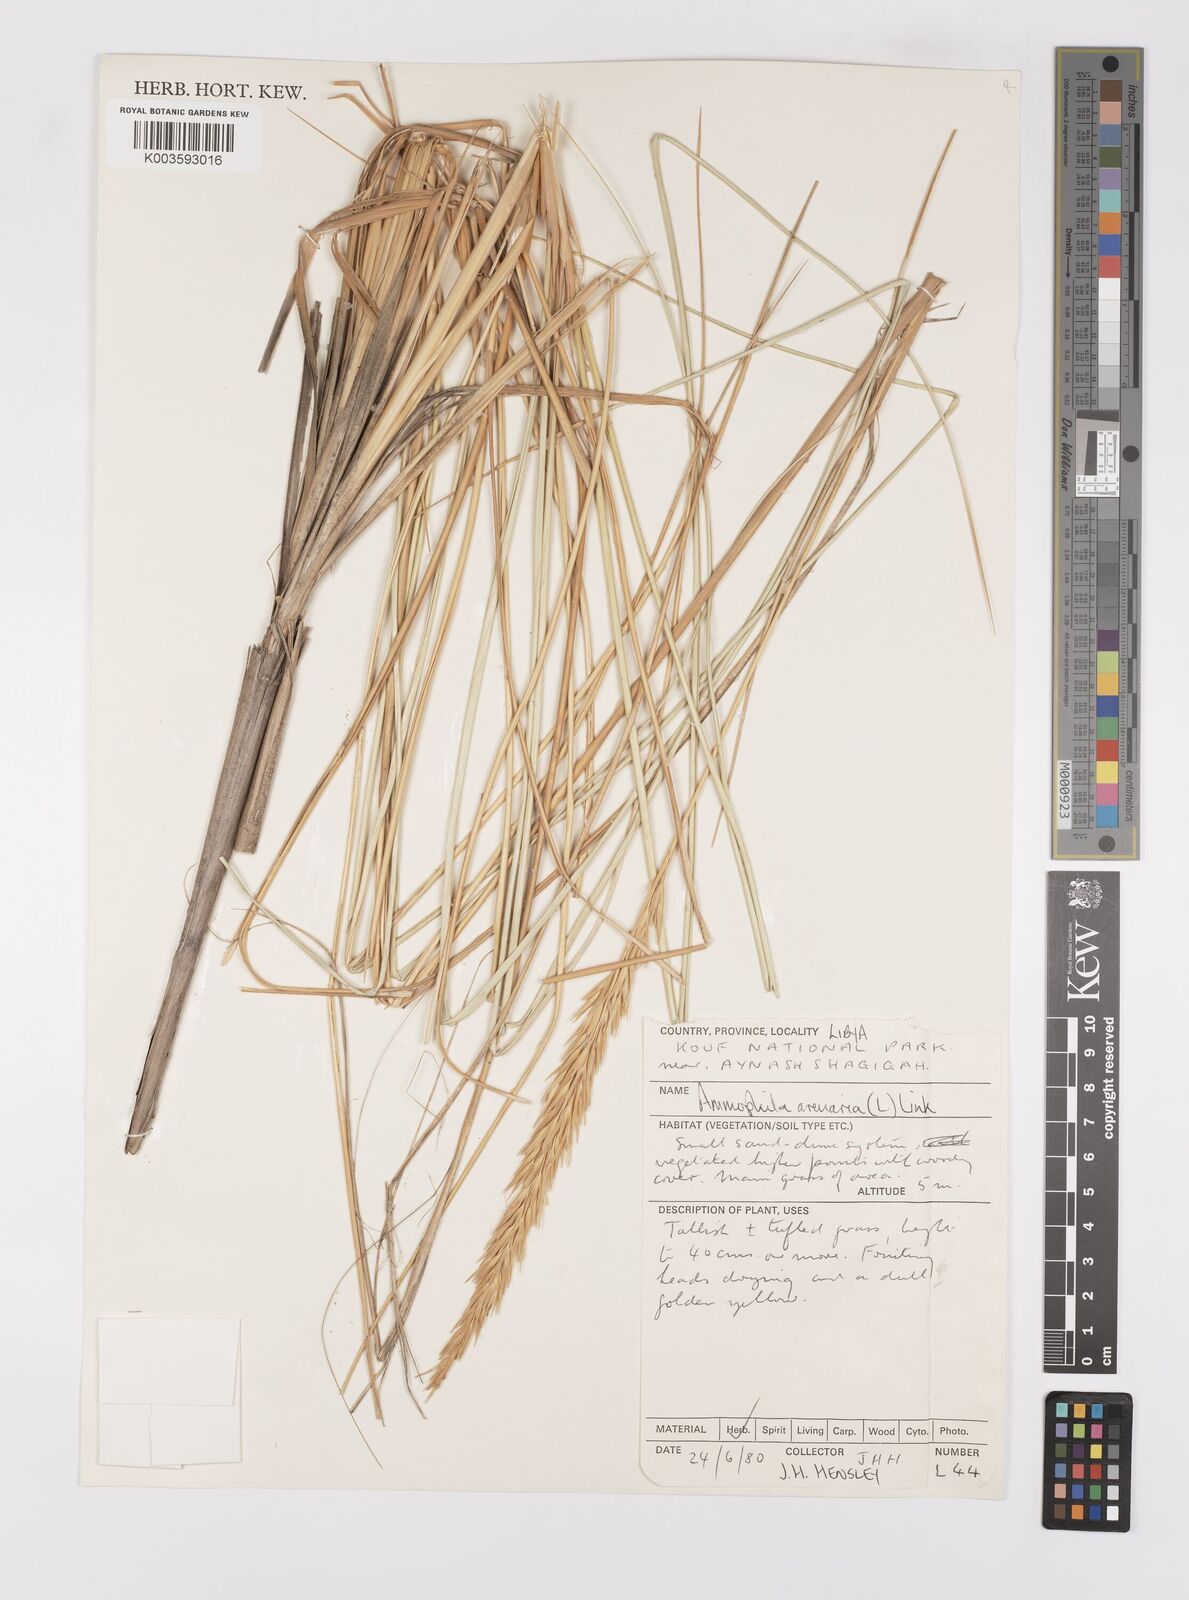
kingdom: Plantae
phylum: Tracheophyta
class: Liliopsida
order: Poales
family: Poaceae
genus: Calamagrostis
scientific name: Calamagrostis arenaria
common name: European beachgrass
